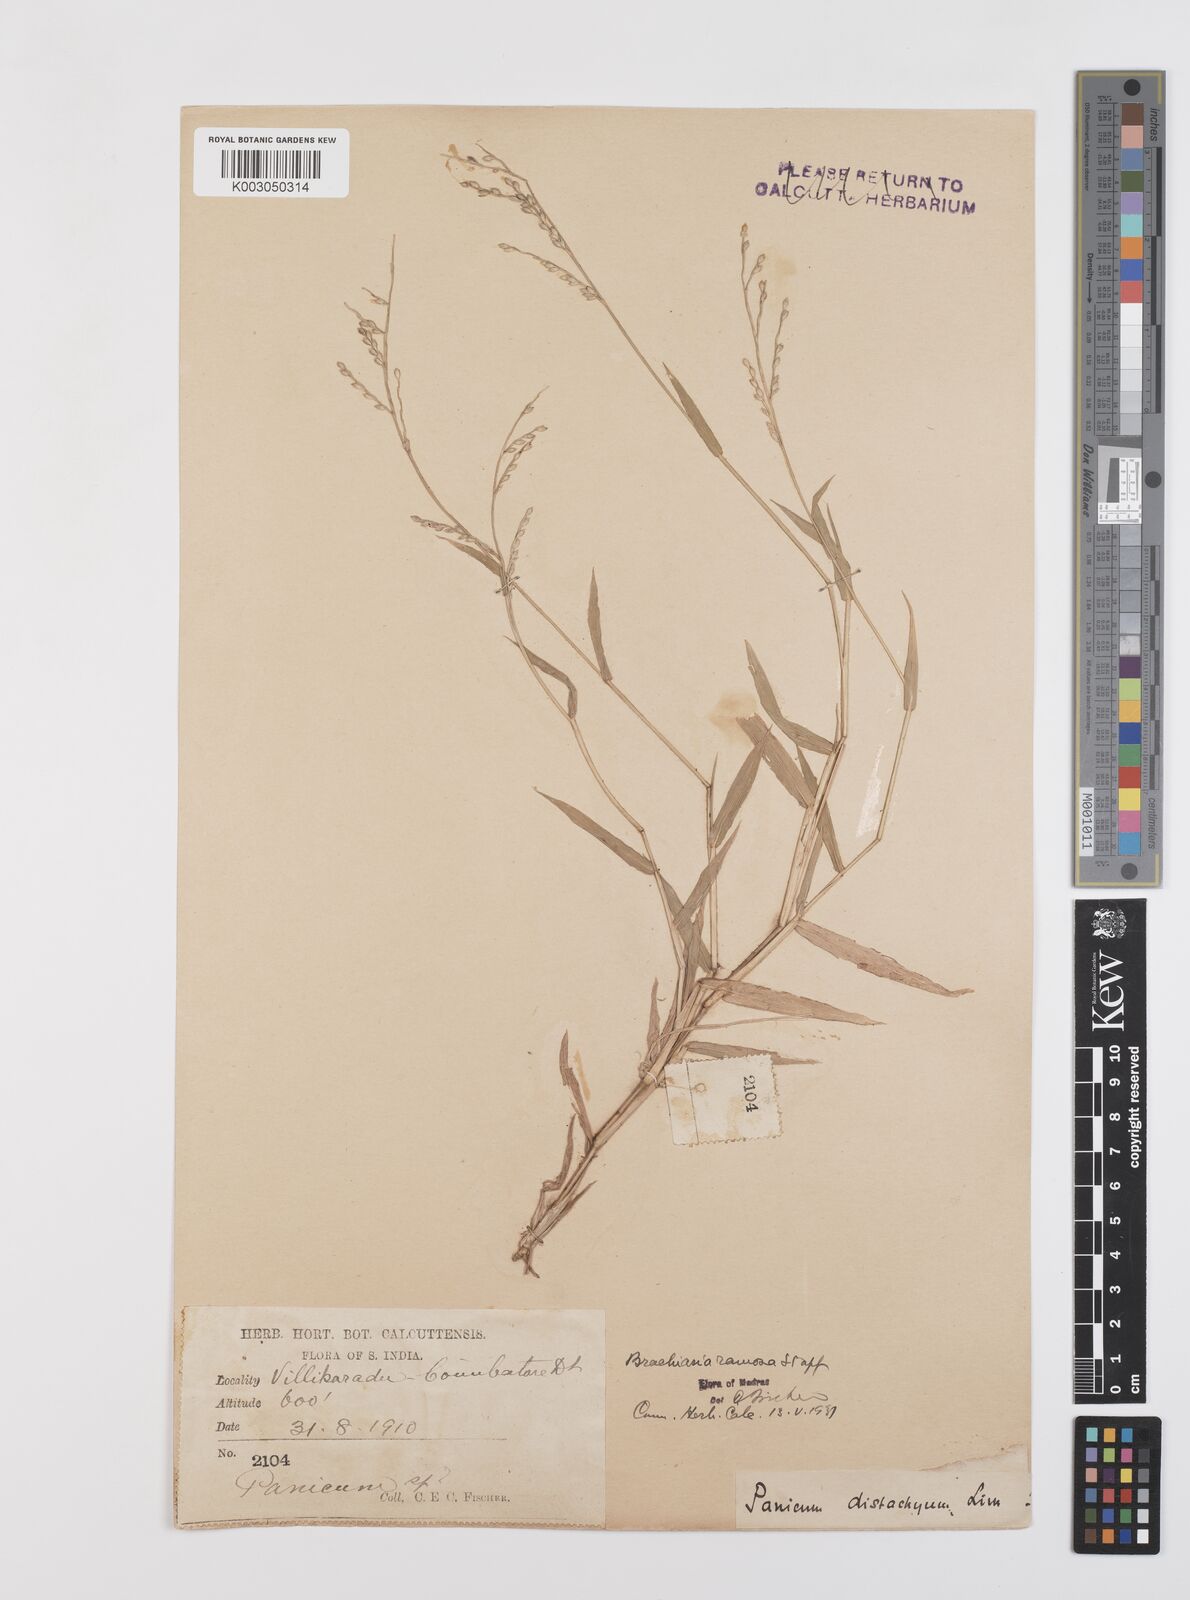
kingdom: Plantae
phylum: Tracheophyta
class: Liliopsida
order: Poales
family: Poaceae
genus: Urochloa
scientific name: Urochloa ramosa
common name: Browntop millet
